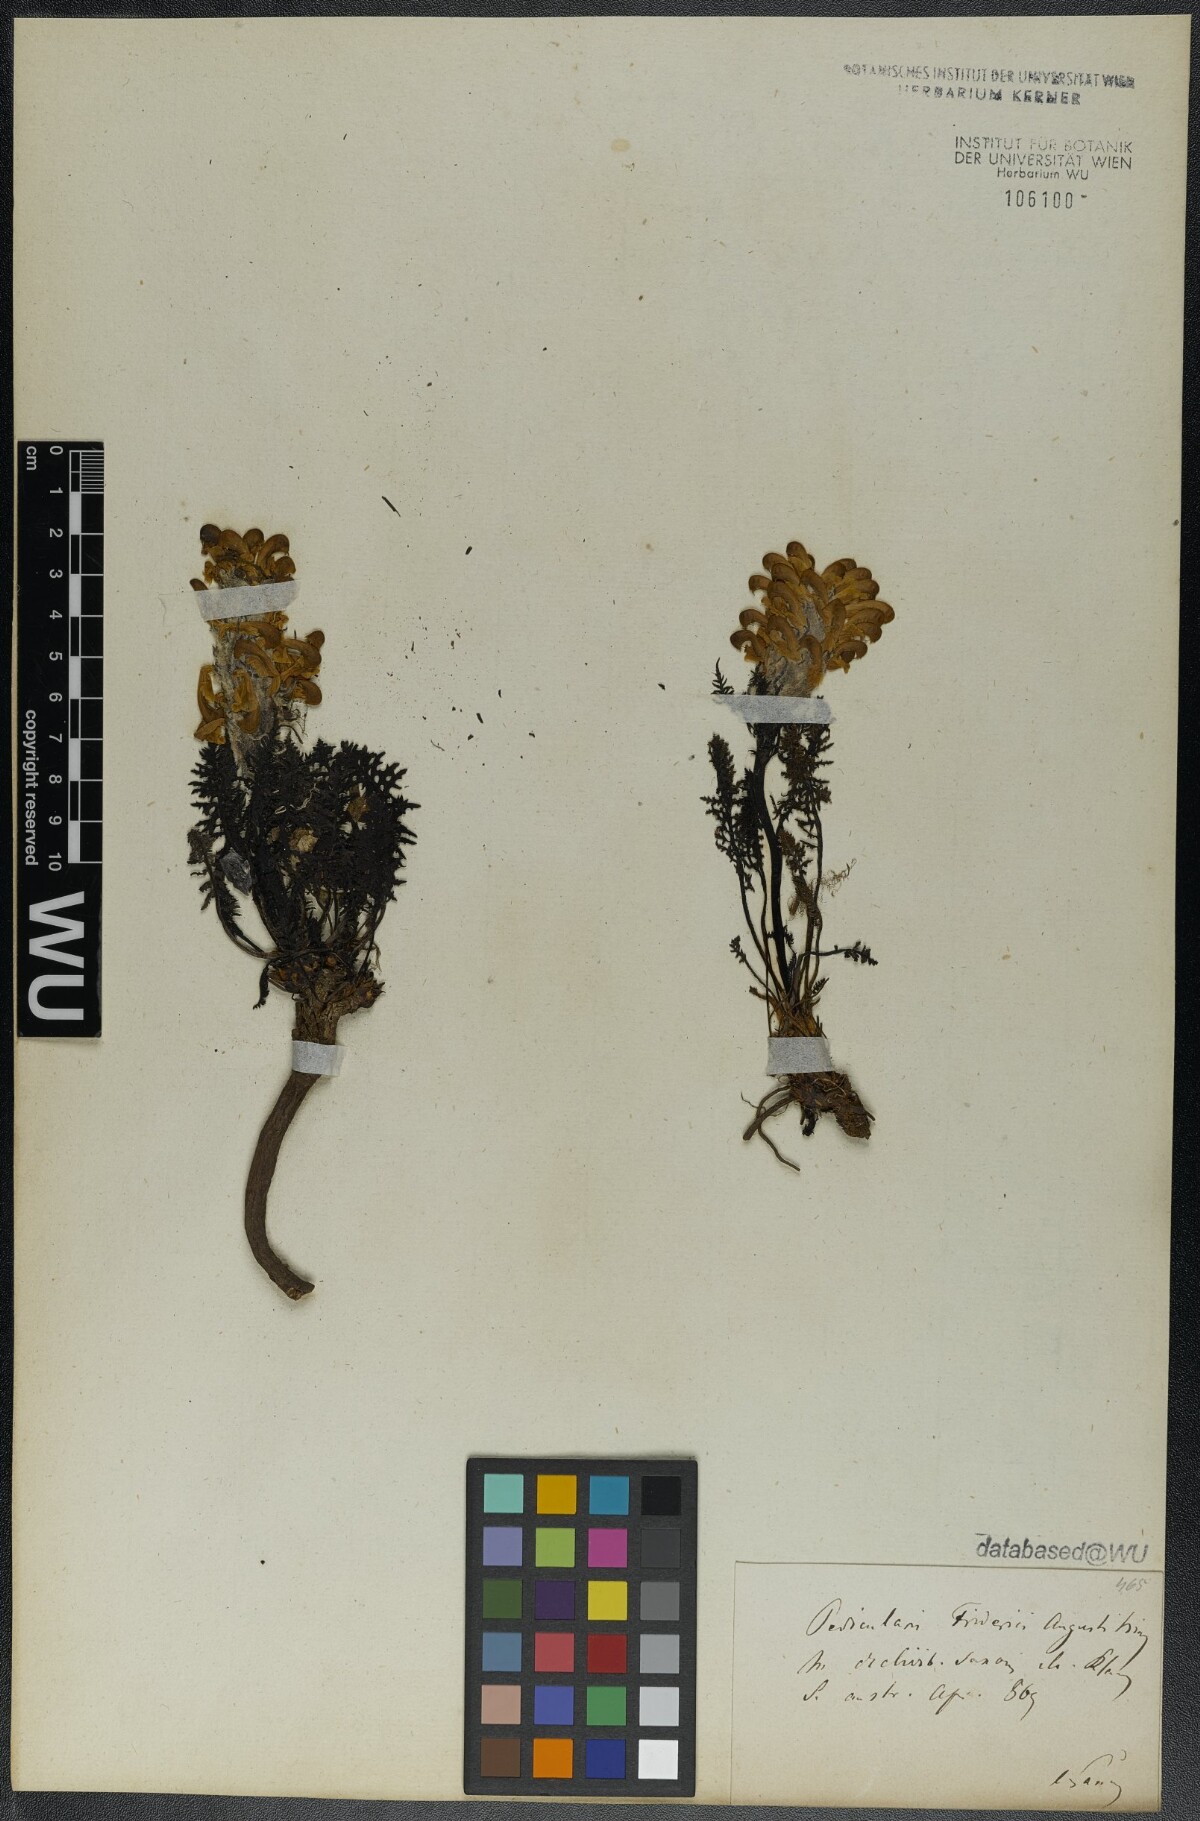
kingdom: Plantae
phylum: Tracheophyta
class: Magnoliopsida
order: Lamiales
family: Orobanchaceae
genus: Pedicularis
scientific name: Pedicularis friderici-augusti
